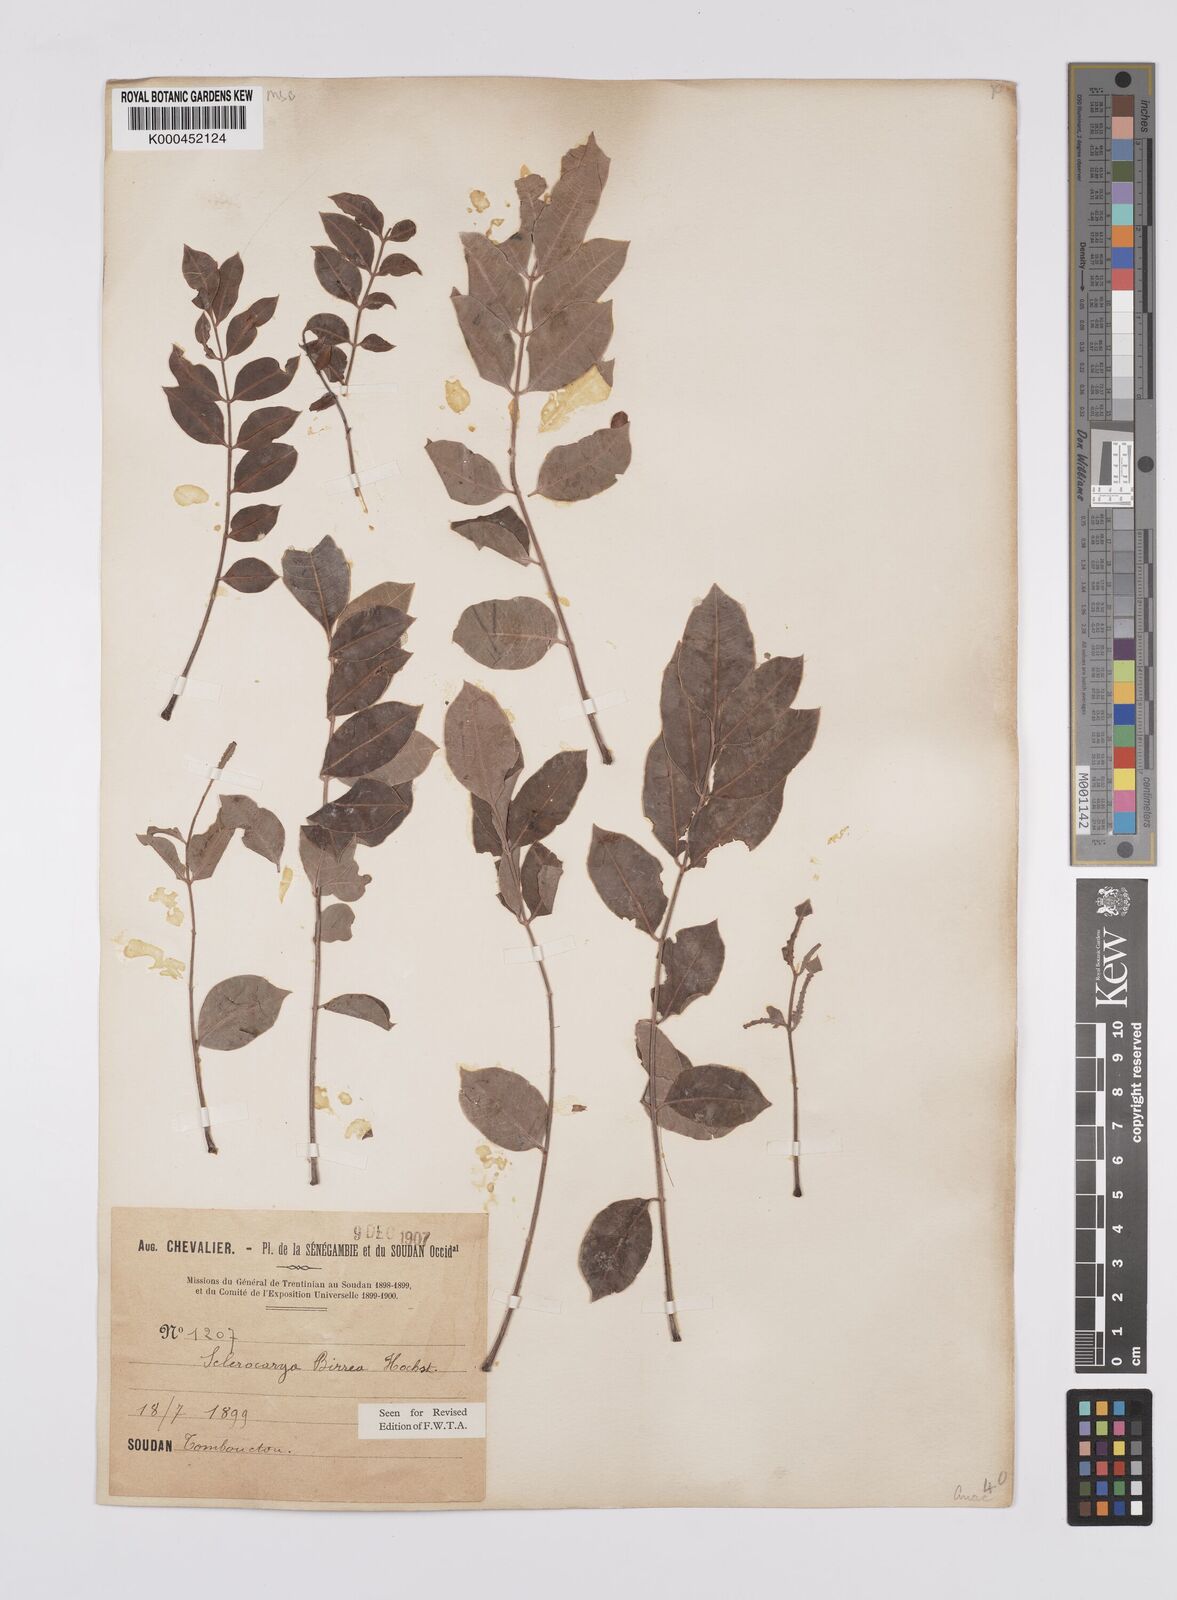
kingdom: Plantae
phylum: Tracheophyta
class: Magnoliopsida
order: Sapindales
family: Anacardiaceae
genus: Sclerocarya
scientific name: Sclerocarya birrea
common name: Marula
